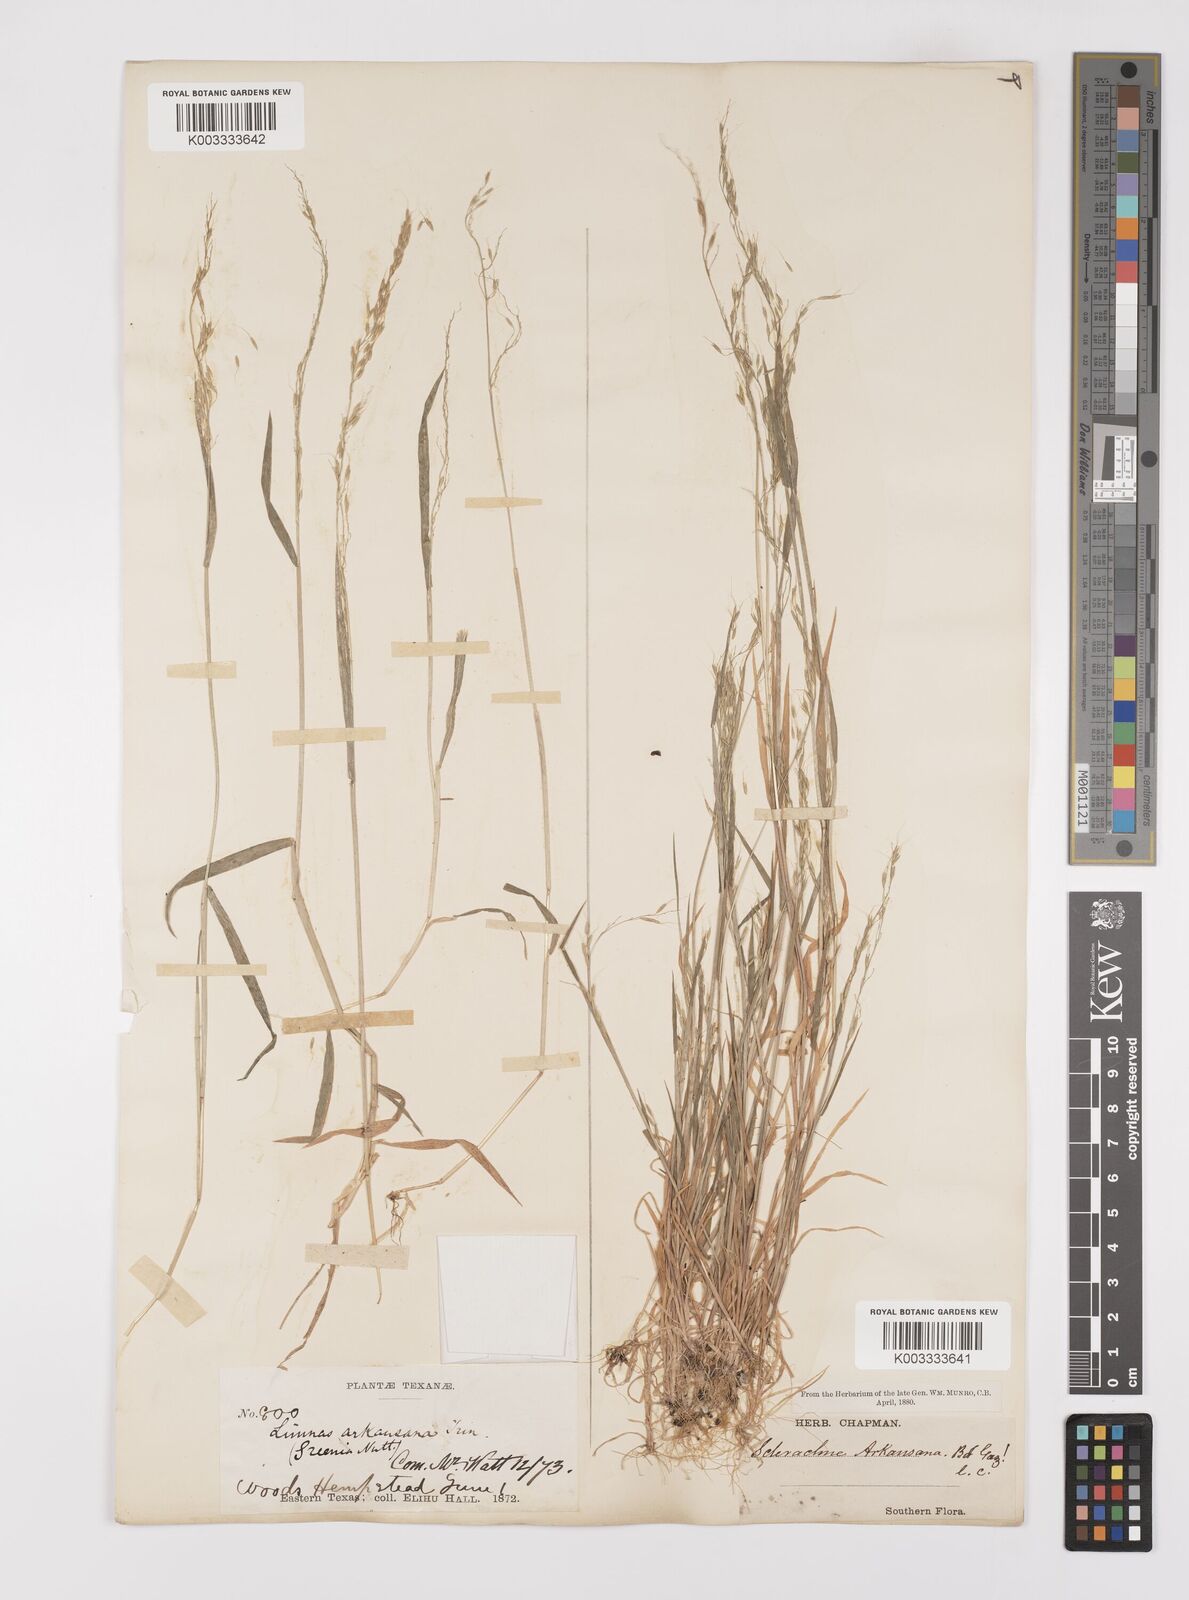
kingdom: Plantae
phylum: Tracheophyta
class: Liliopsida
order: Poales
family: Poaceae
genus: Limnodea
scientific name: Limnodea arkansana
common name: Ozark-grass
